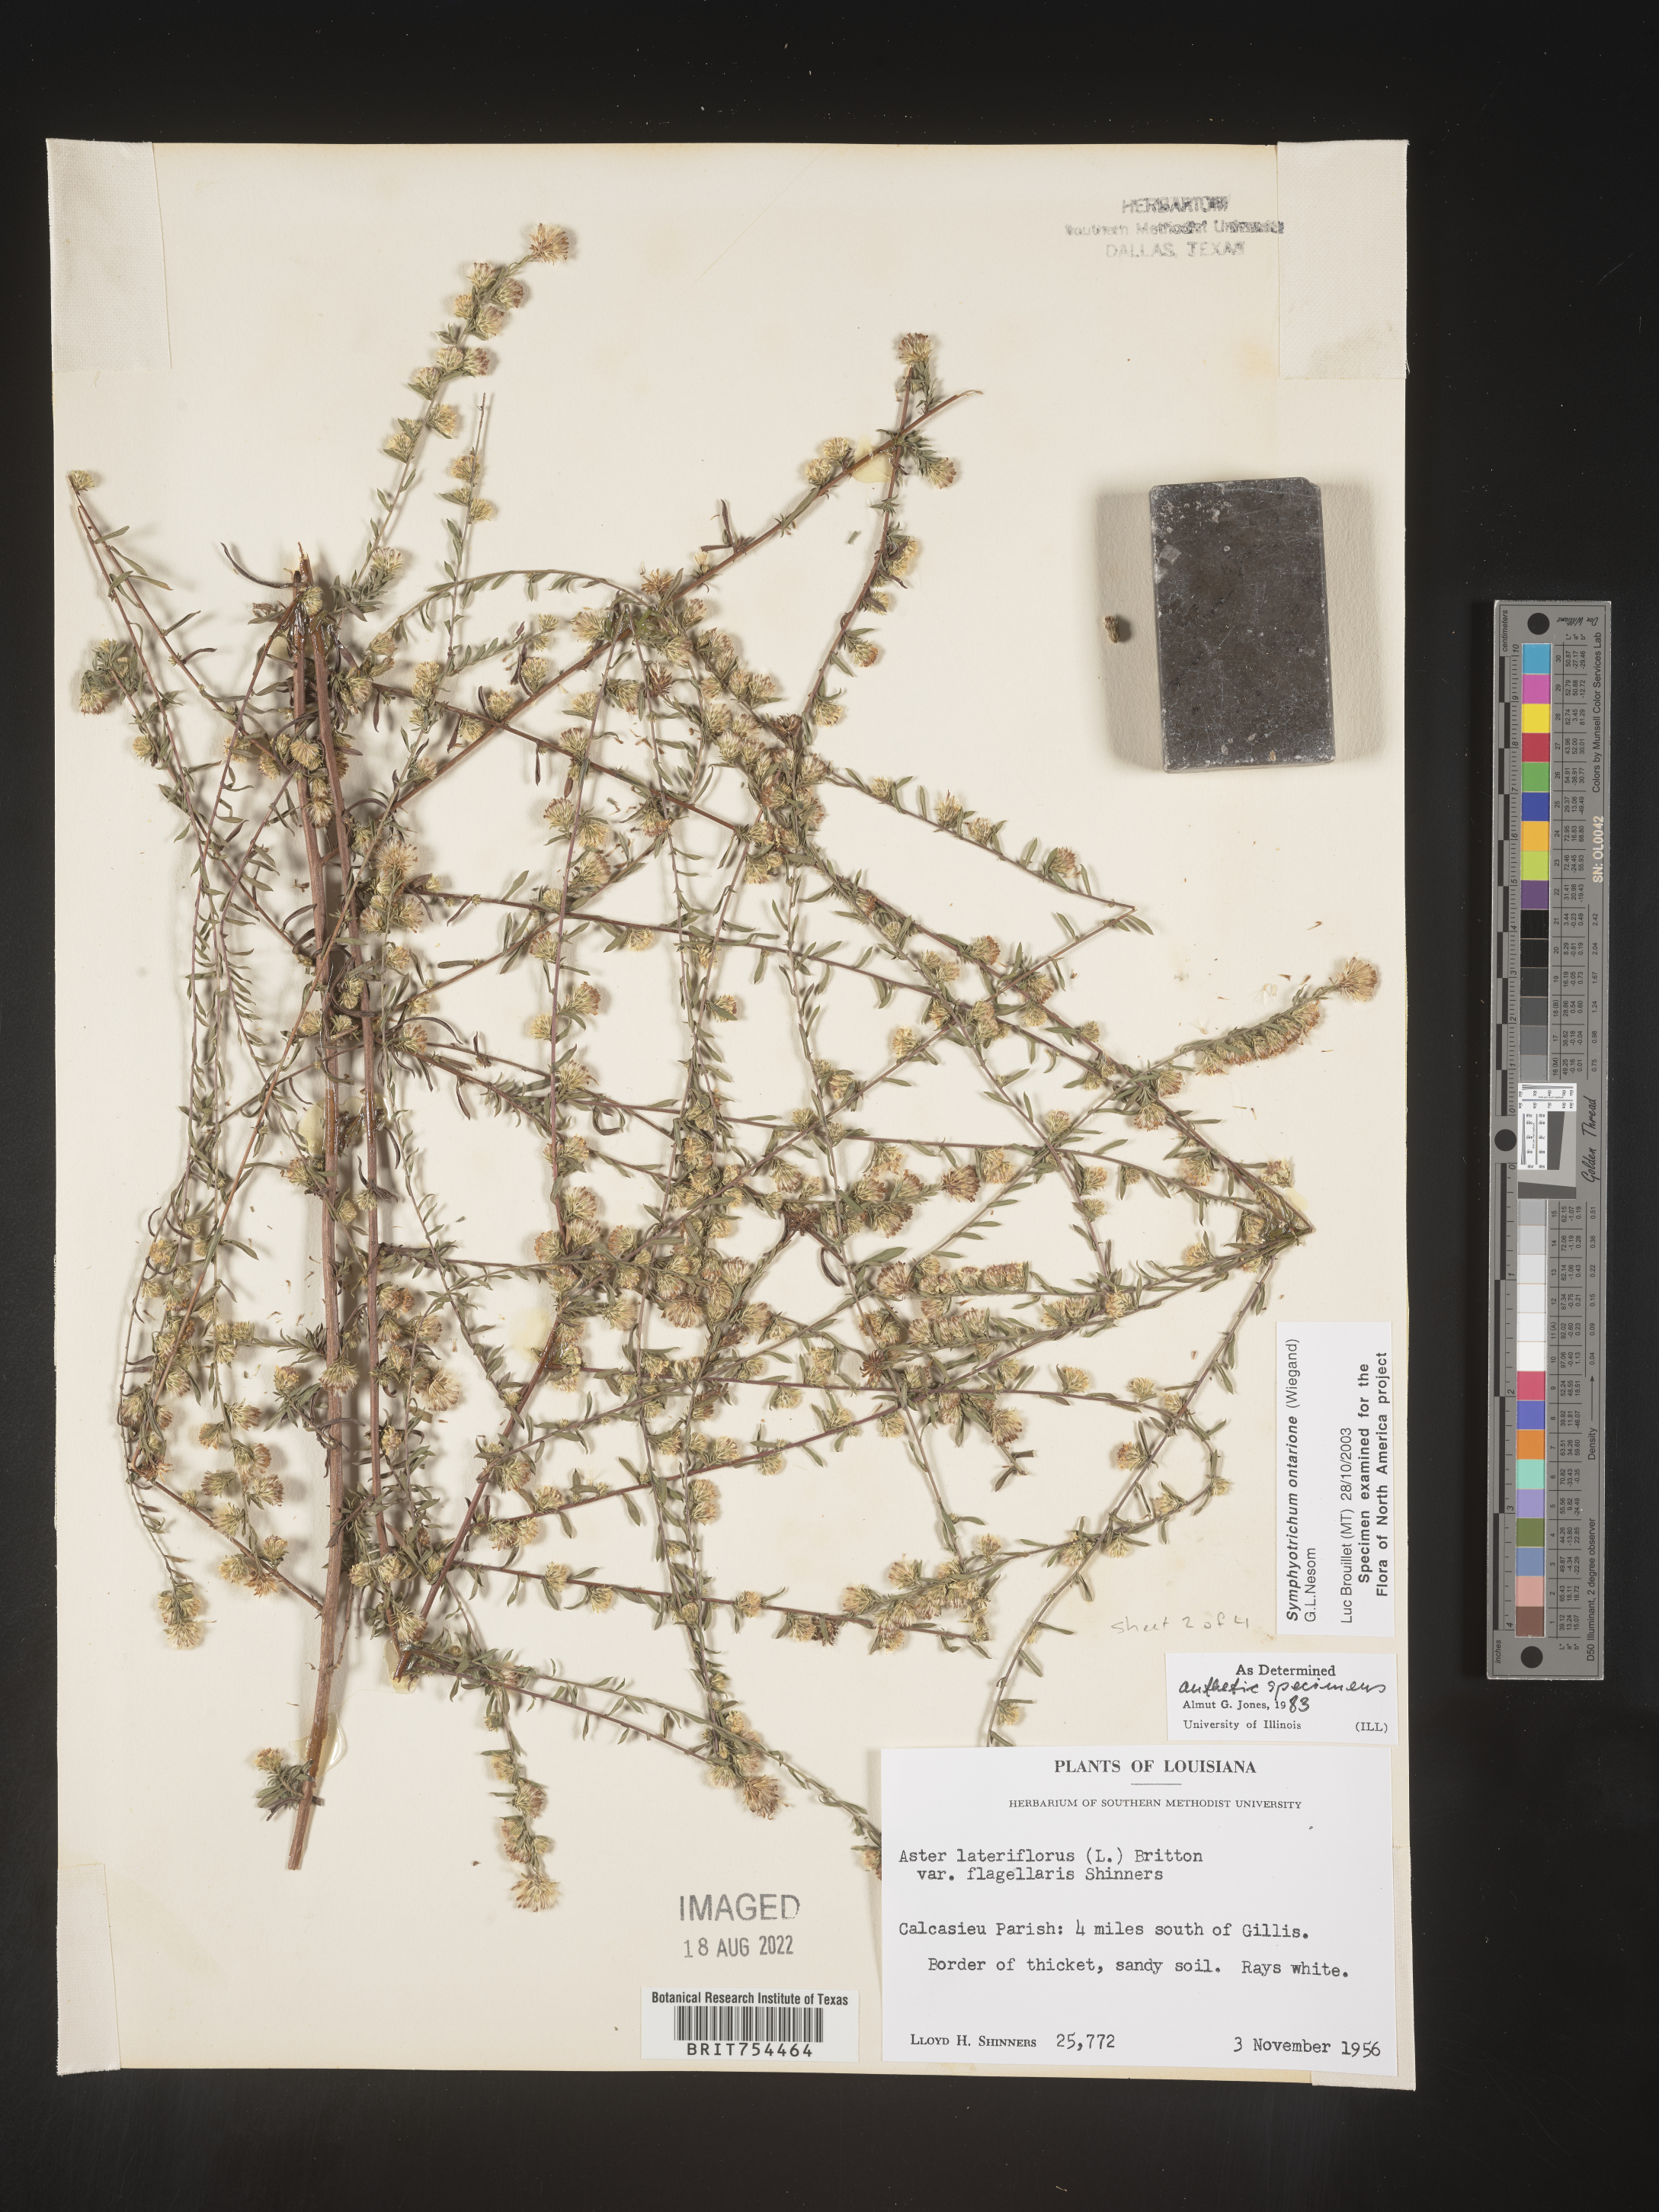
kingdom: Plantae
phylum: Tracheophyta
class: Magnoliopsida
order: Asterales
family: Asteraceae
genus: Symphyotrichum
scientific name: Symphyotrichum ontarionis
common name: Bottomland aster
